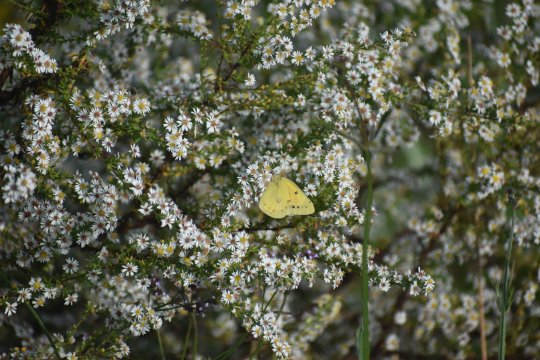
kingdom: Animalia
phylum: Arthropoda
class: Insecta
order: Lepidoptera
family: Pieridae
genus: Colias
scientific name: Colias eurytheme
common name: Orange Sulphur
